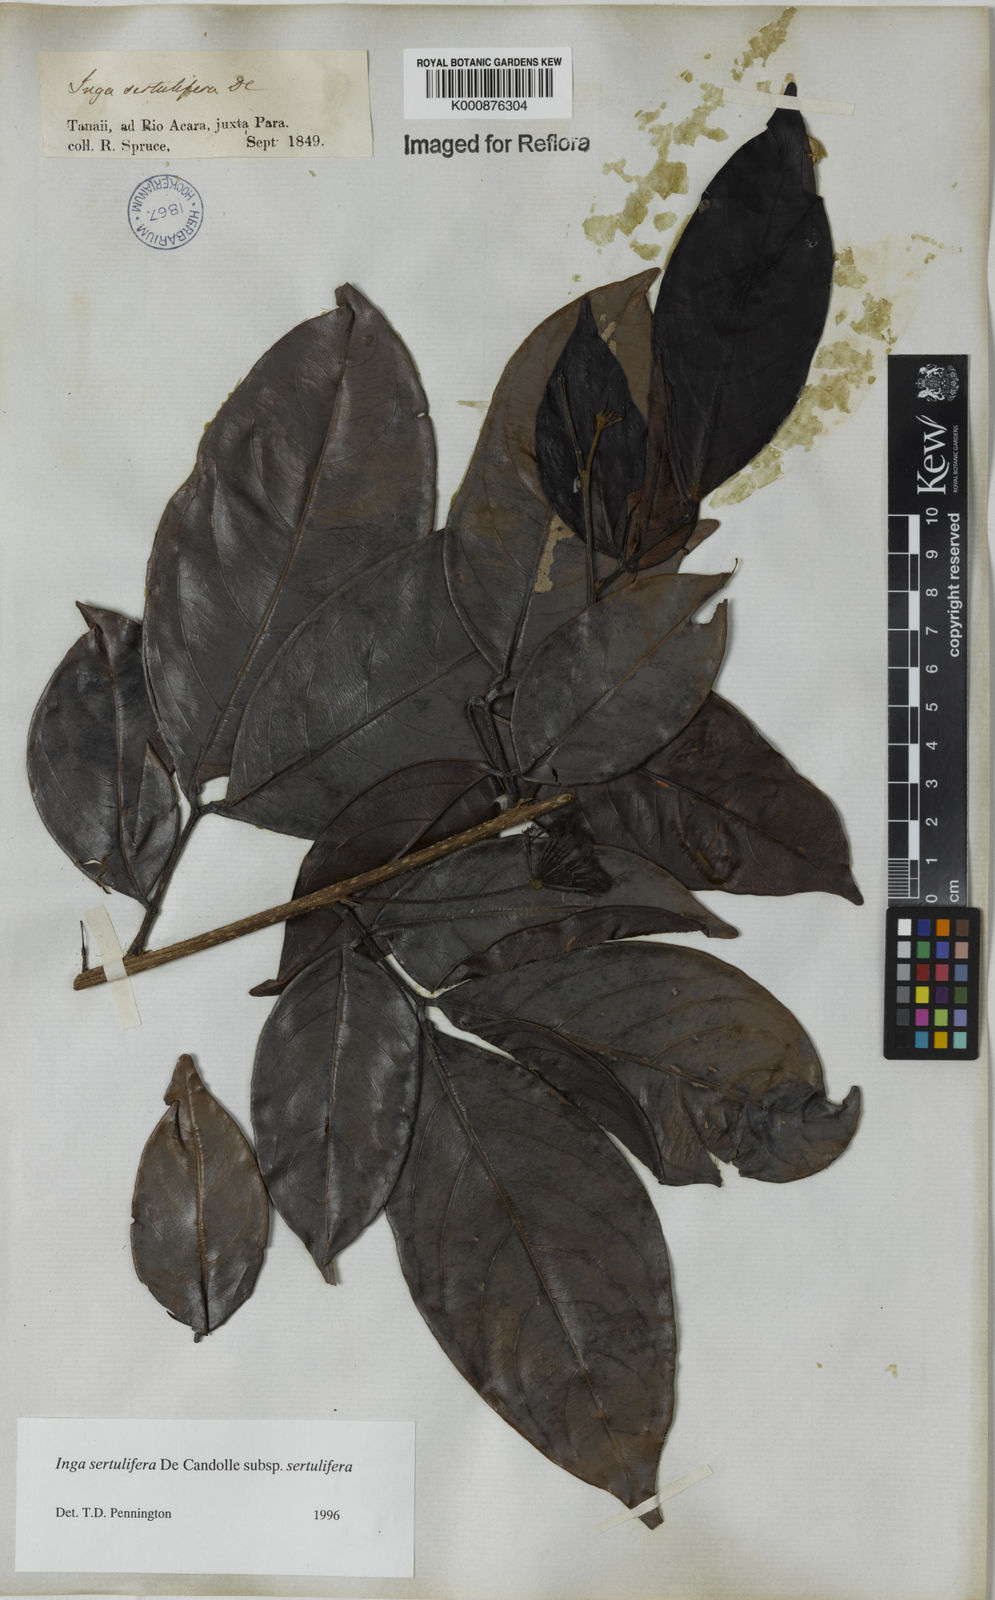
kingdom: Plantae
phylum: Tracheophyta
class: Magnoliopsida
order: Fabales
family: Fabaceae
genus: Inga
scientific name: Inga sertulifera
